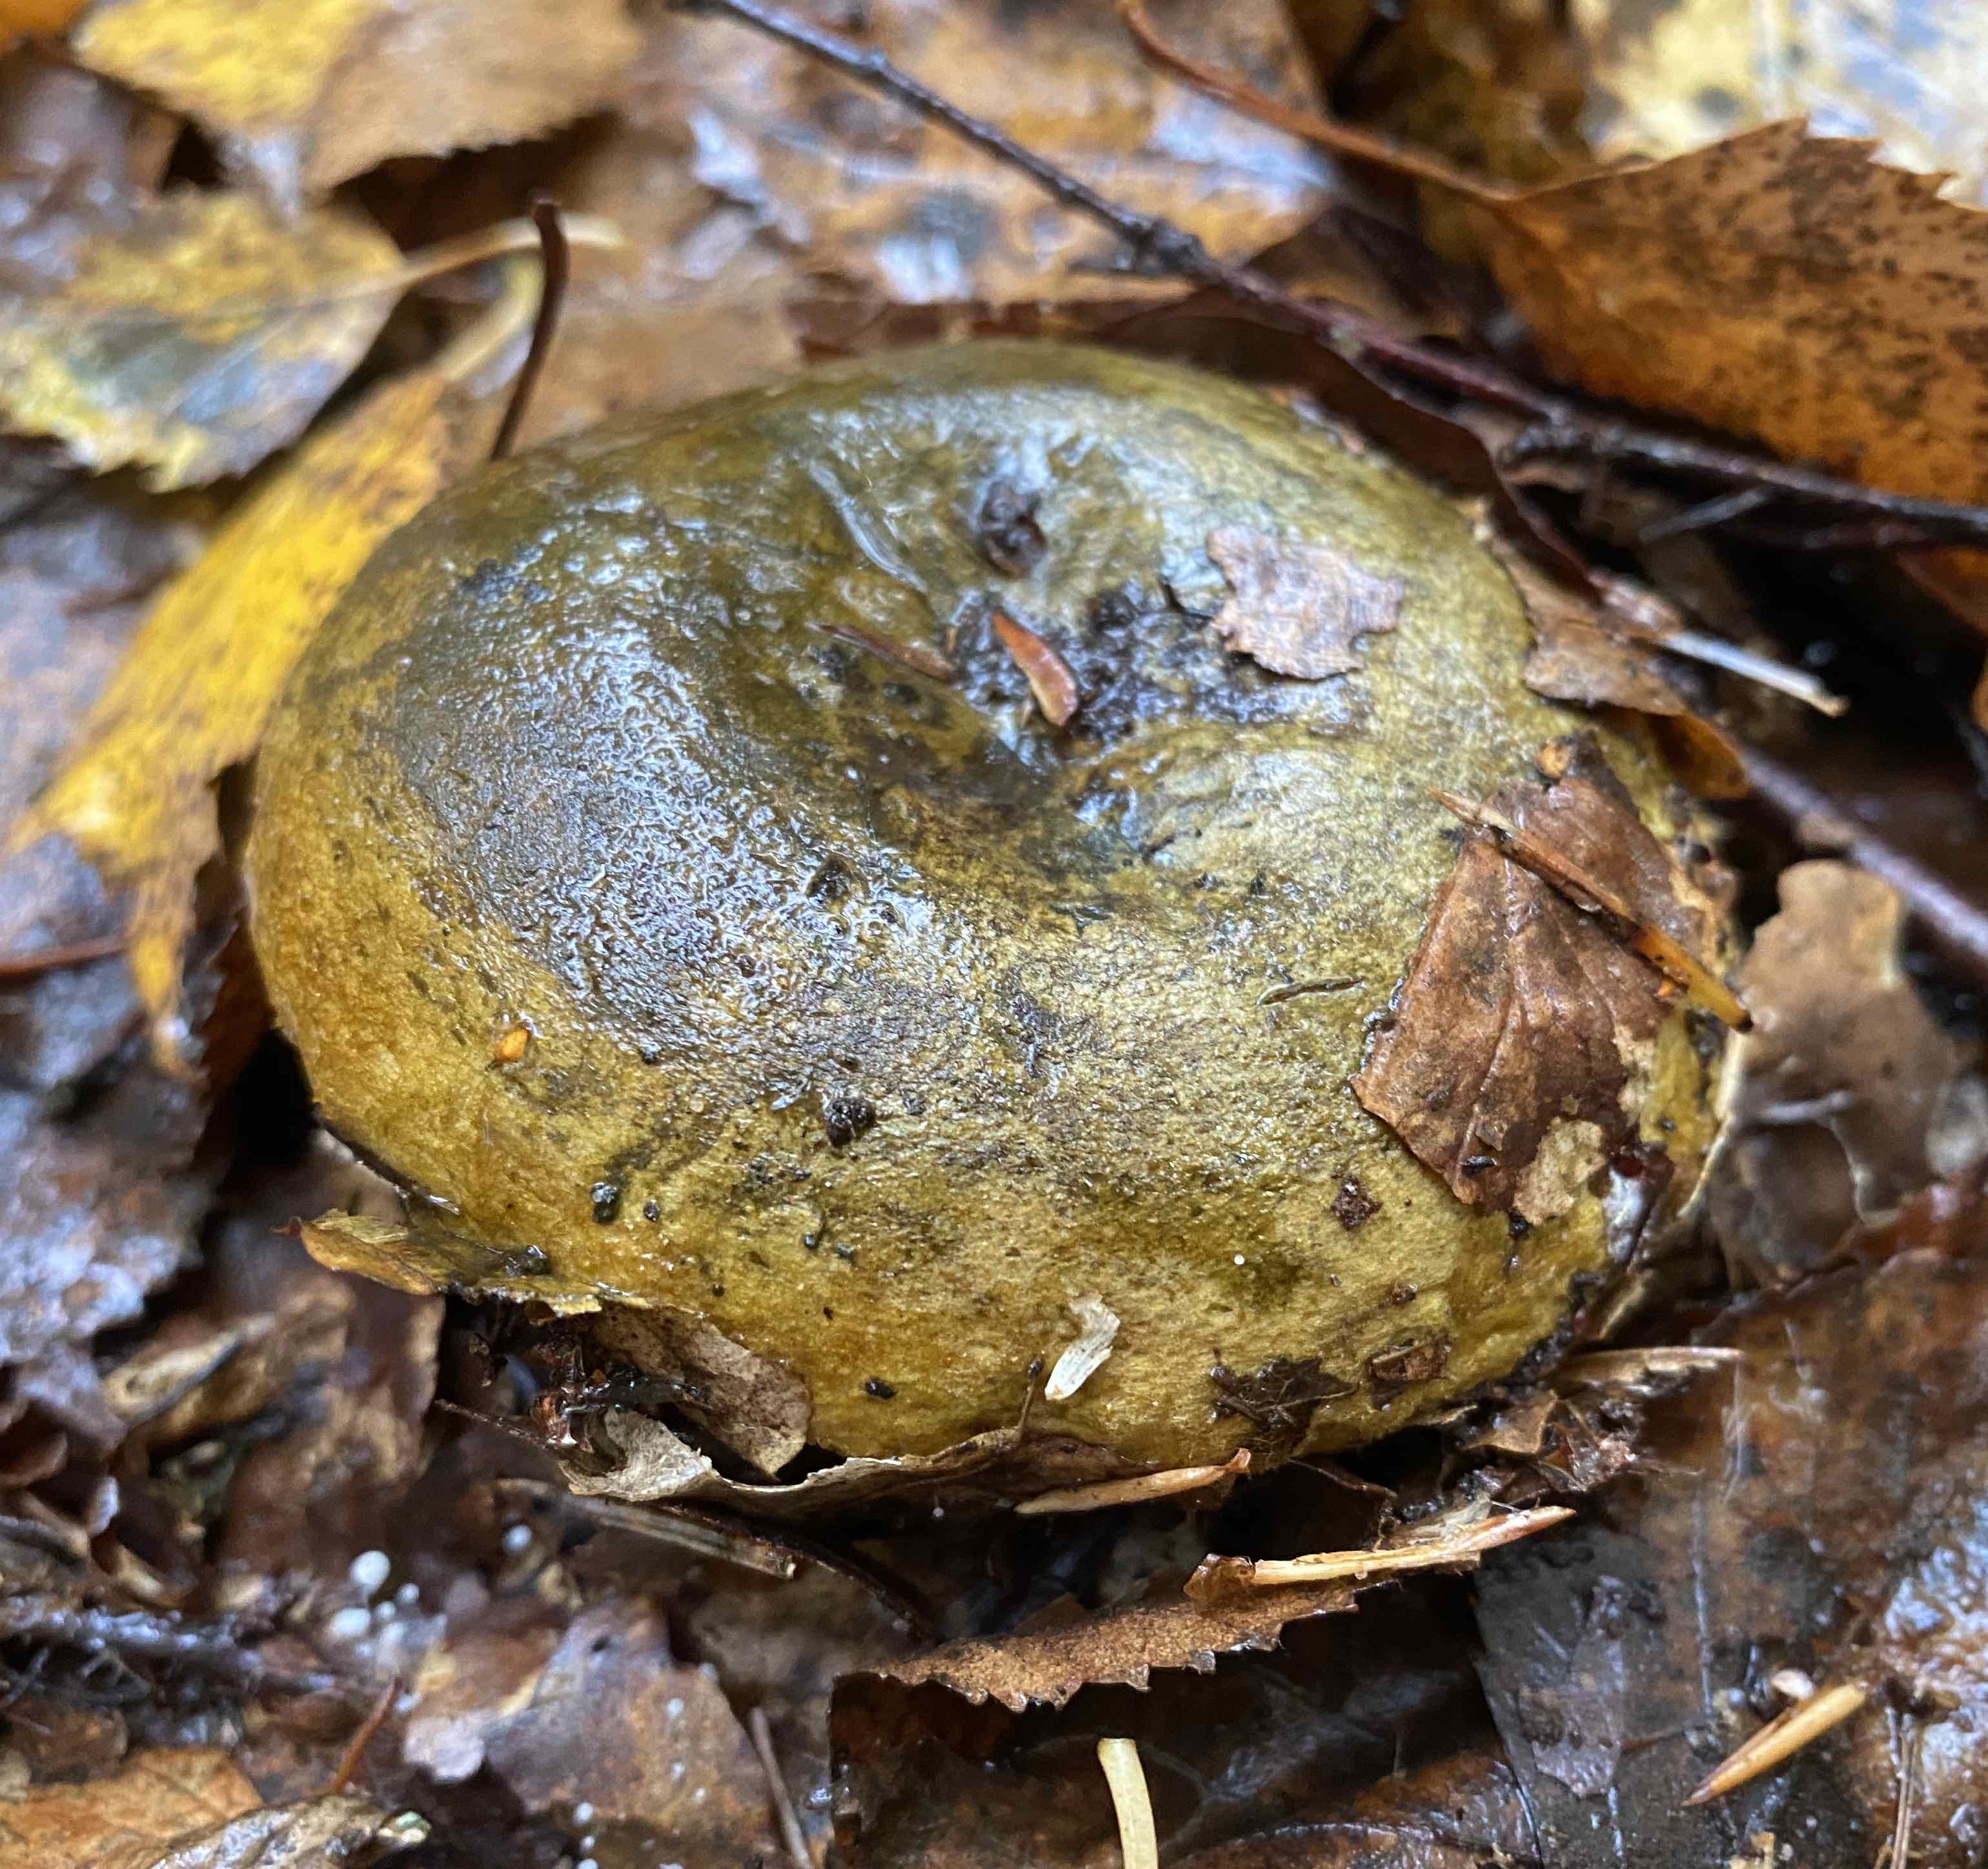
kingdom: Fungi
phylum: Basidiomycota
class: Agaricomycetes
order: Russulales
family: Russulaceae
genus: Lactarius
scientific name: Lactarius necator
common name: manddraber-mælkehat
